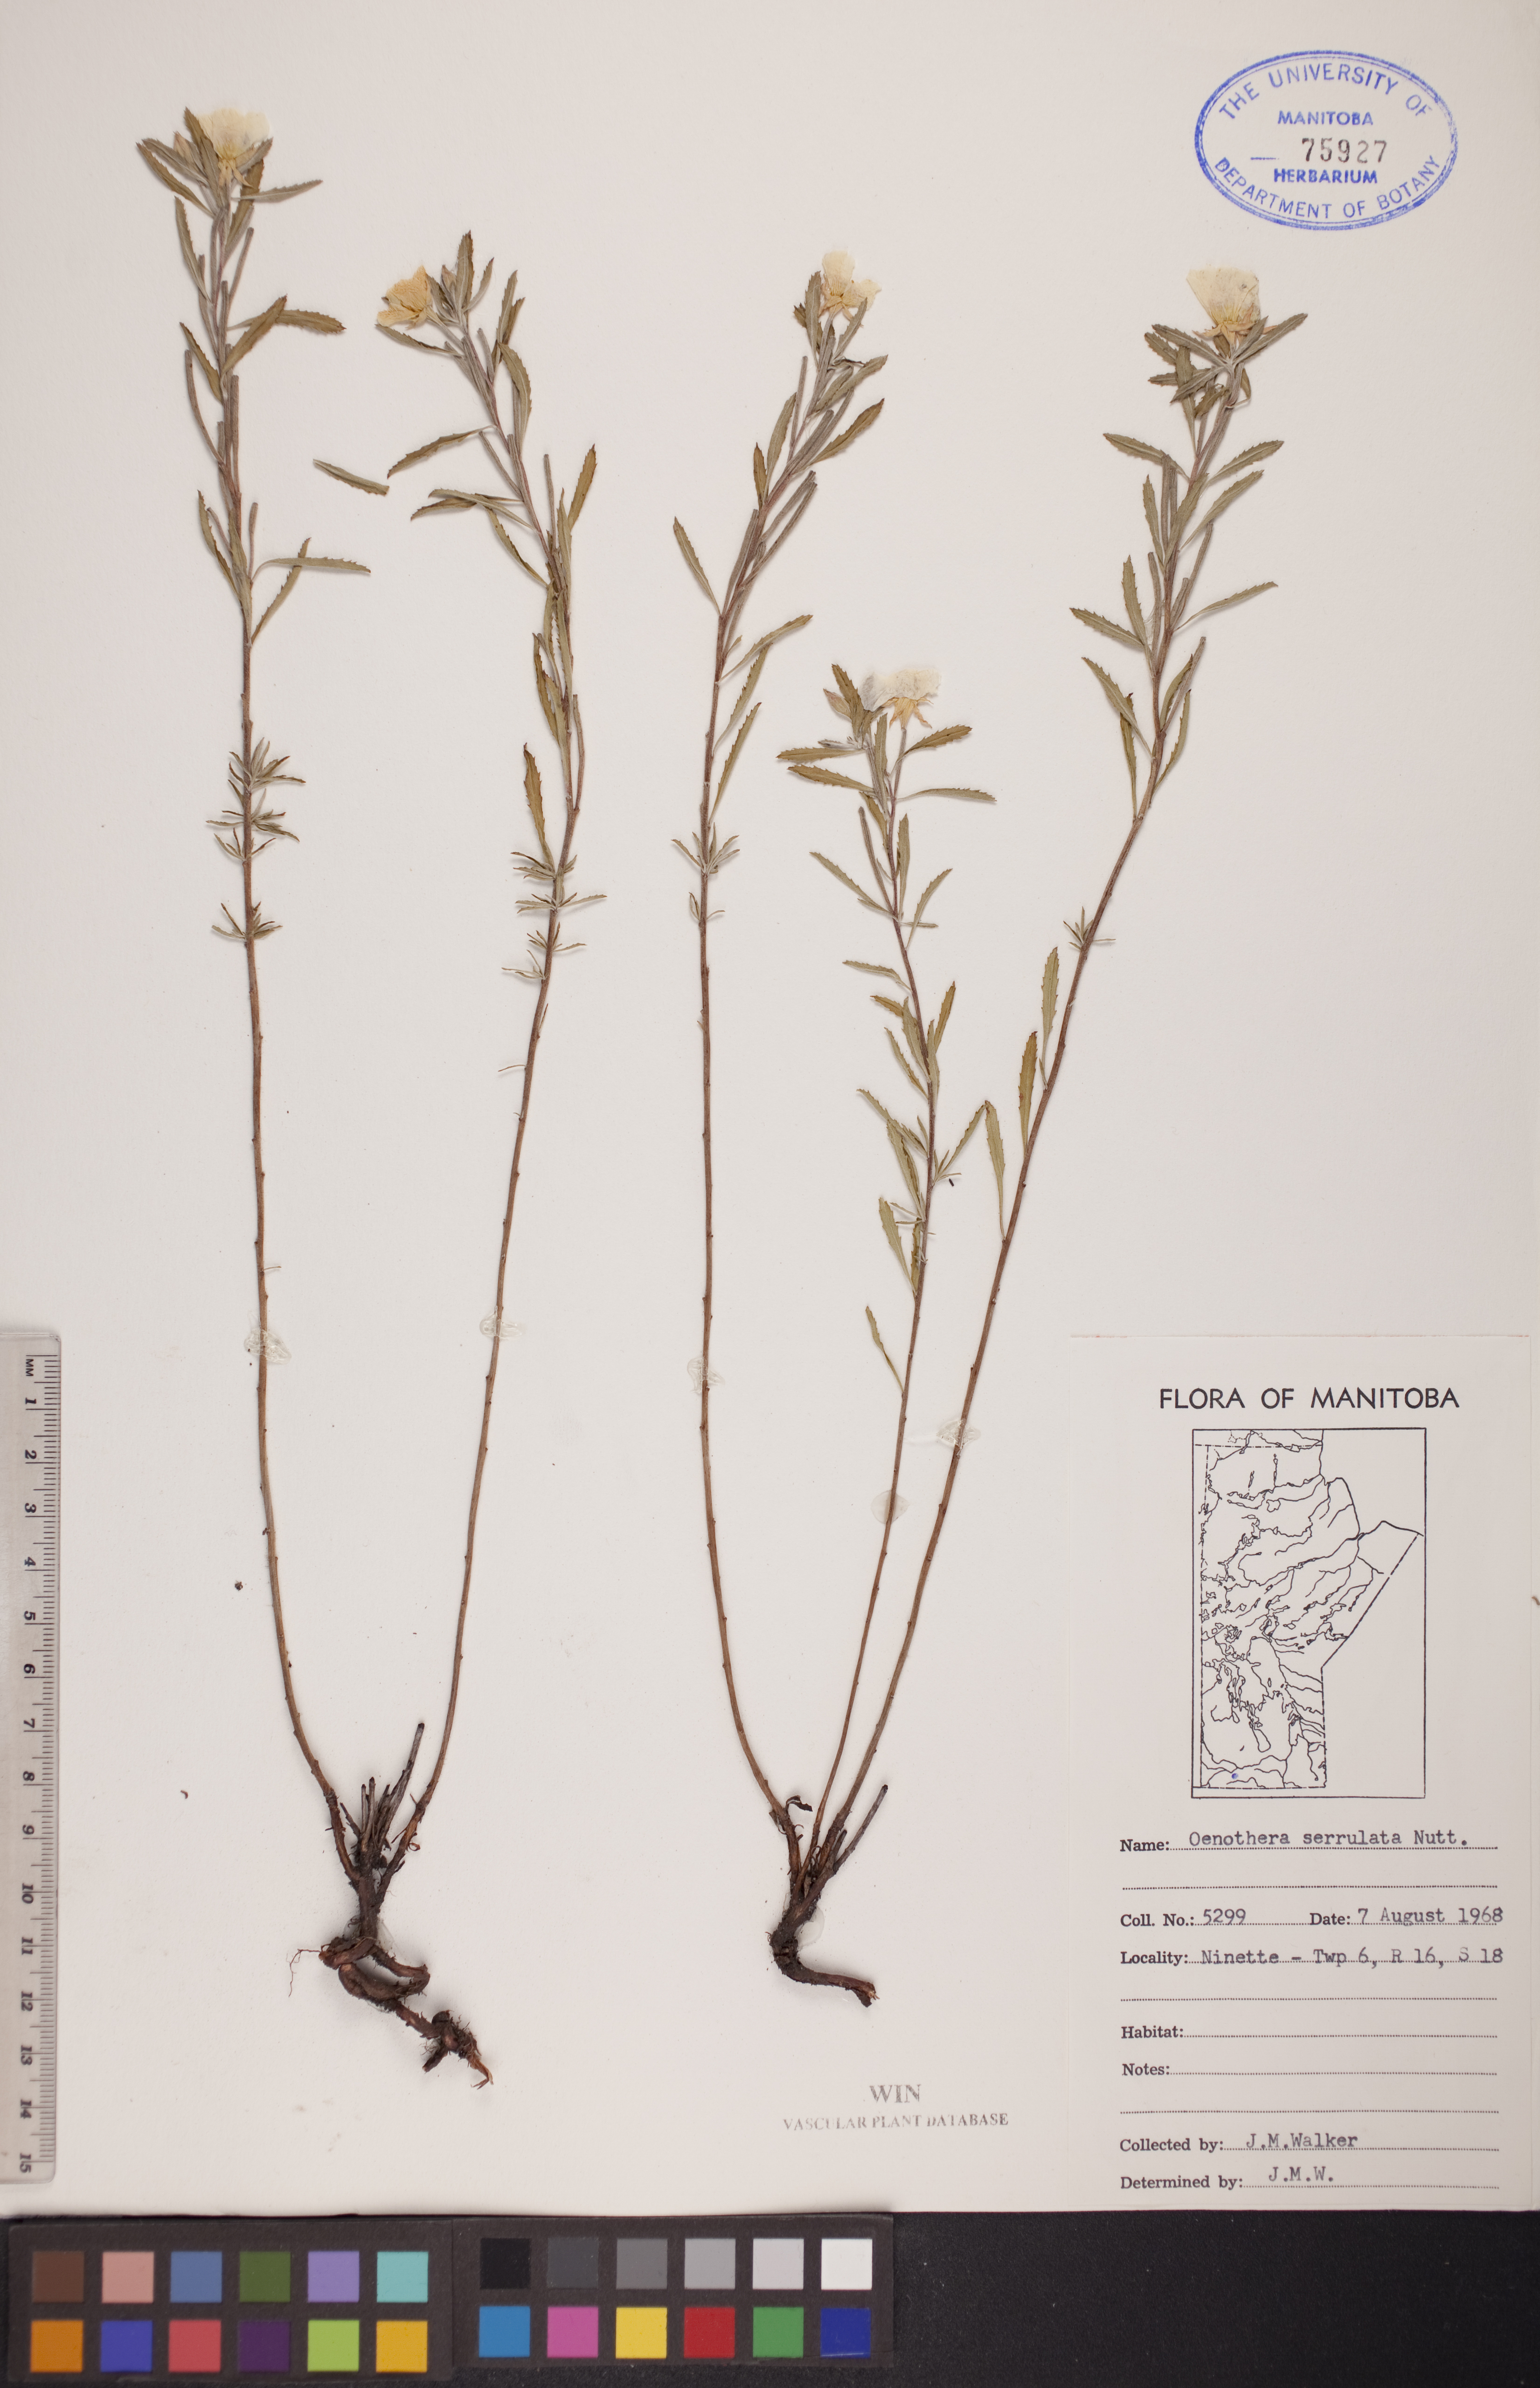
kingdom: Plantae
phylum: Tracheophyta
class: Magnoliopsida
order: Myrtales
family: Onagraceae
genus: Oenothera
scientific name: Oenothera serrulata
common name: Half-shrub calylophus
